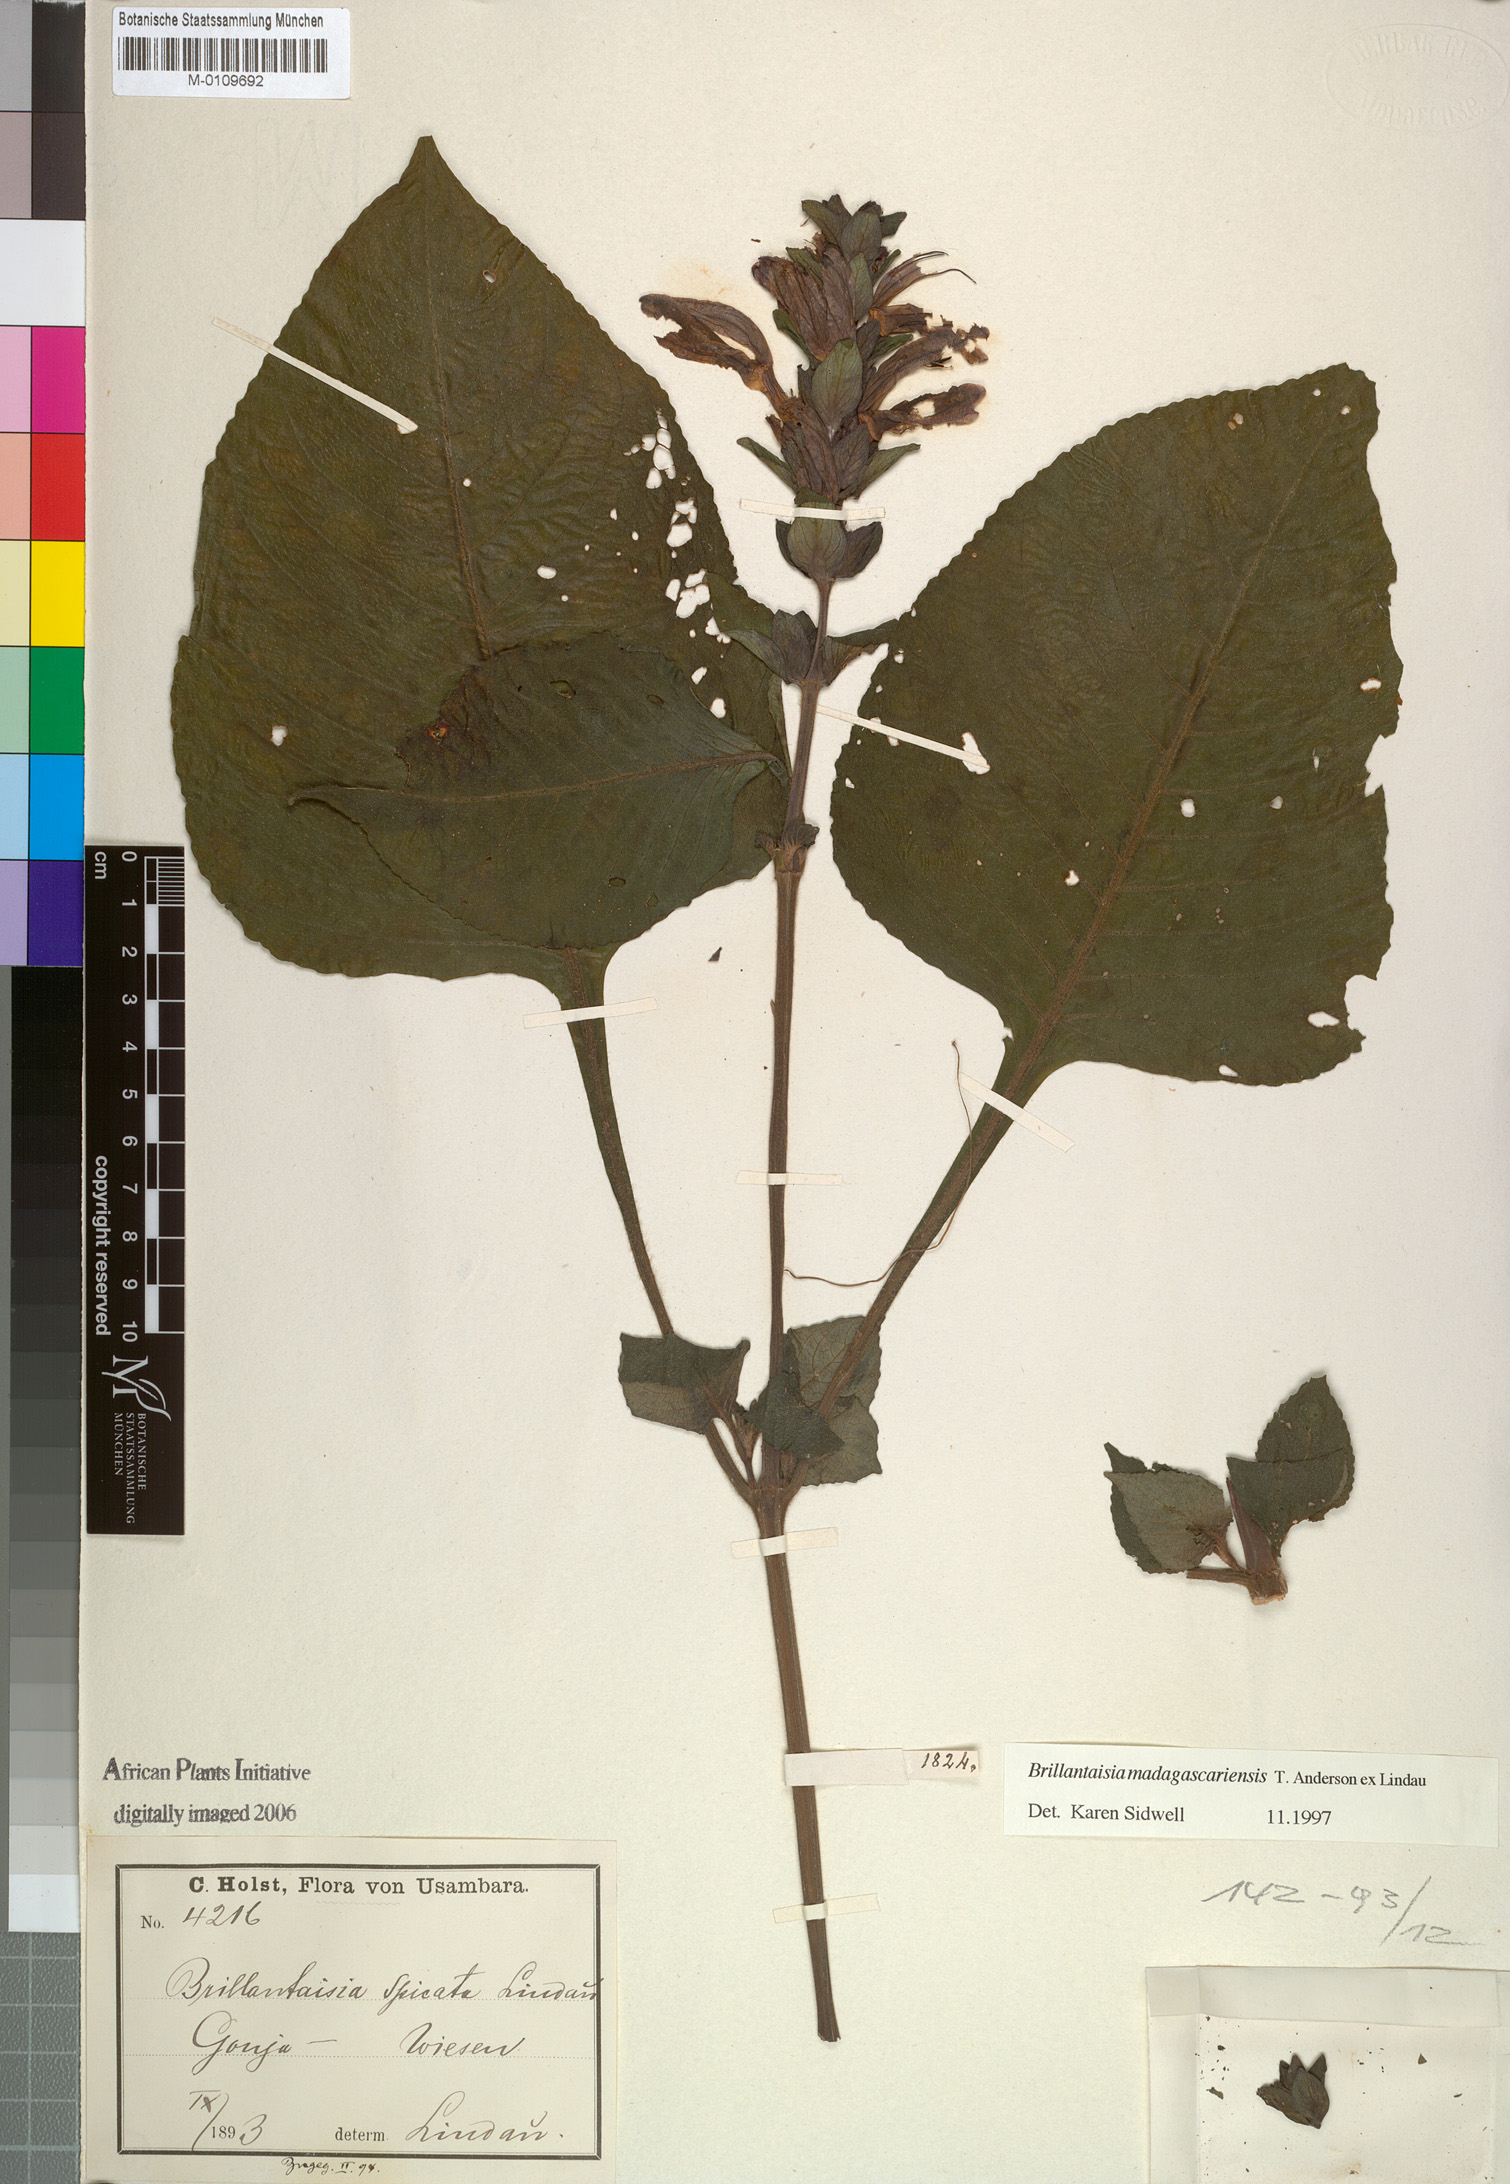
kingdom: Plantae
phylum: Tracheophyta
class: Magnoliopsida
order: Lamiales
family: Acanthaceae
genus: Brillantaisia
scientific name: Brillantaisia madagascariensis
